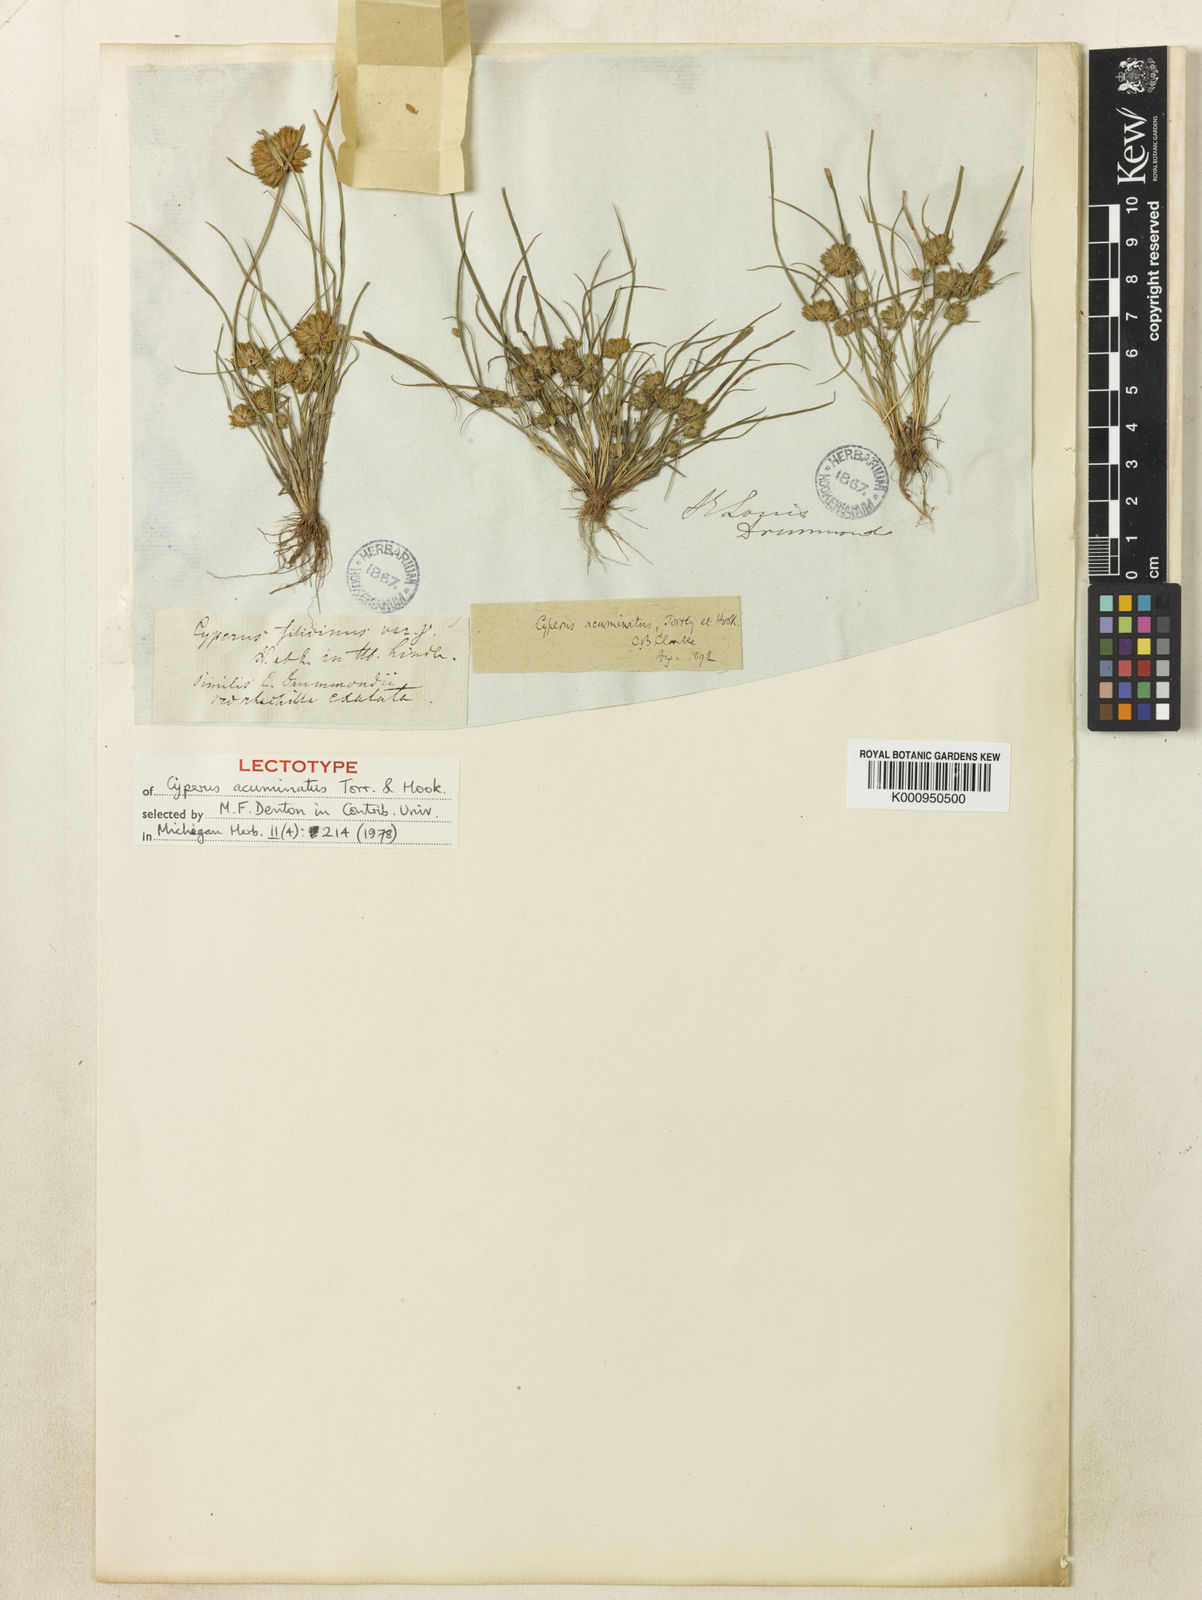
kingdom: Plantae
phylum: Tracheophyta
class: Liliopsida
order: Poales
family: Cyperaceae
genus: Cyperus
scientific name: Cyperus acuminatus
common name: Short-pointed cyperus
